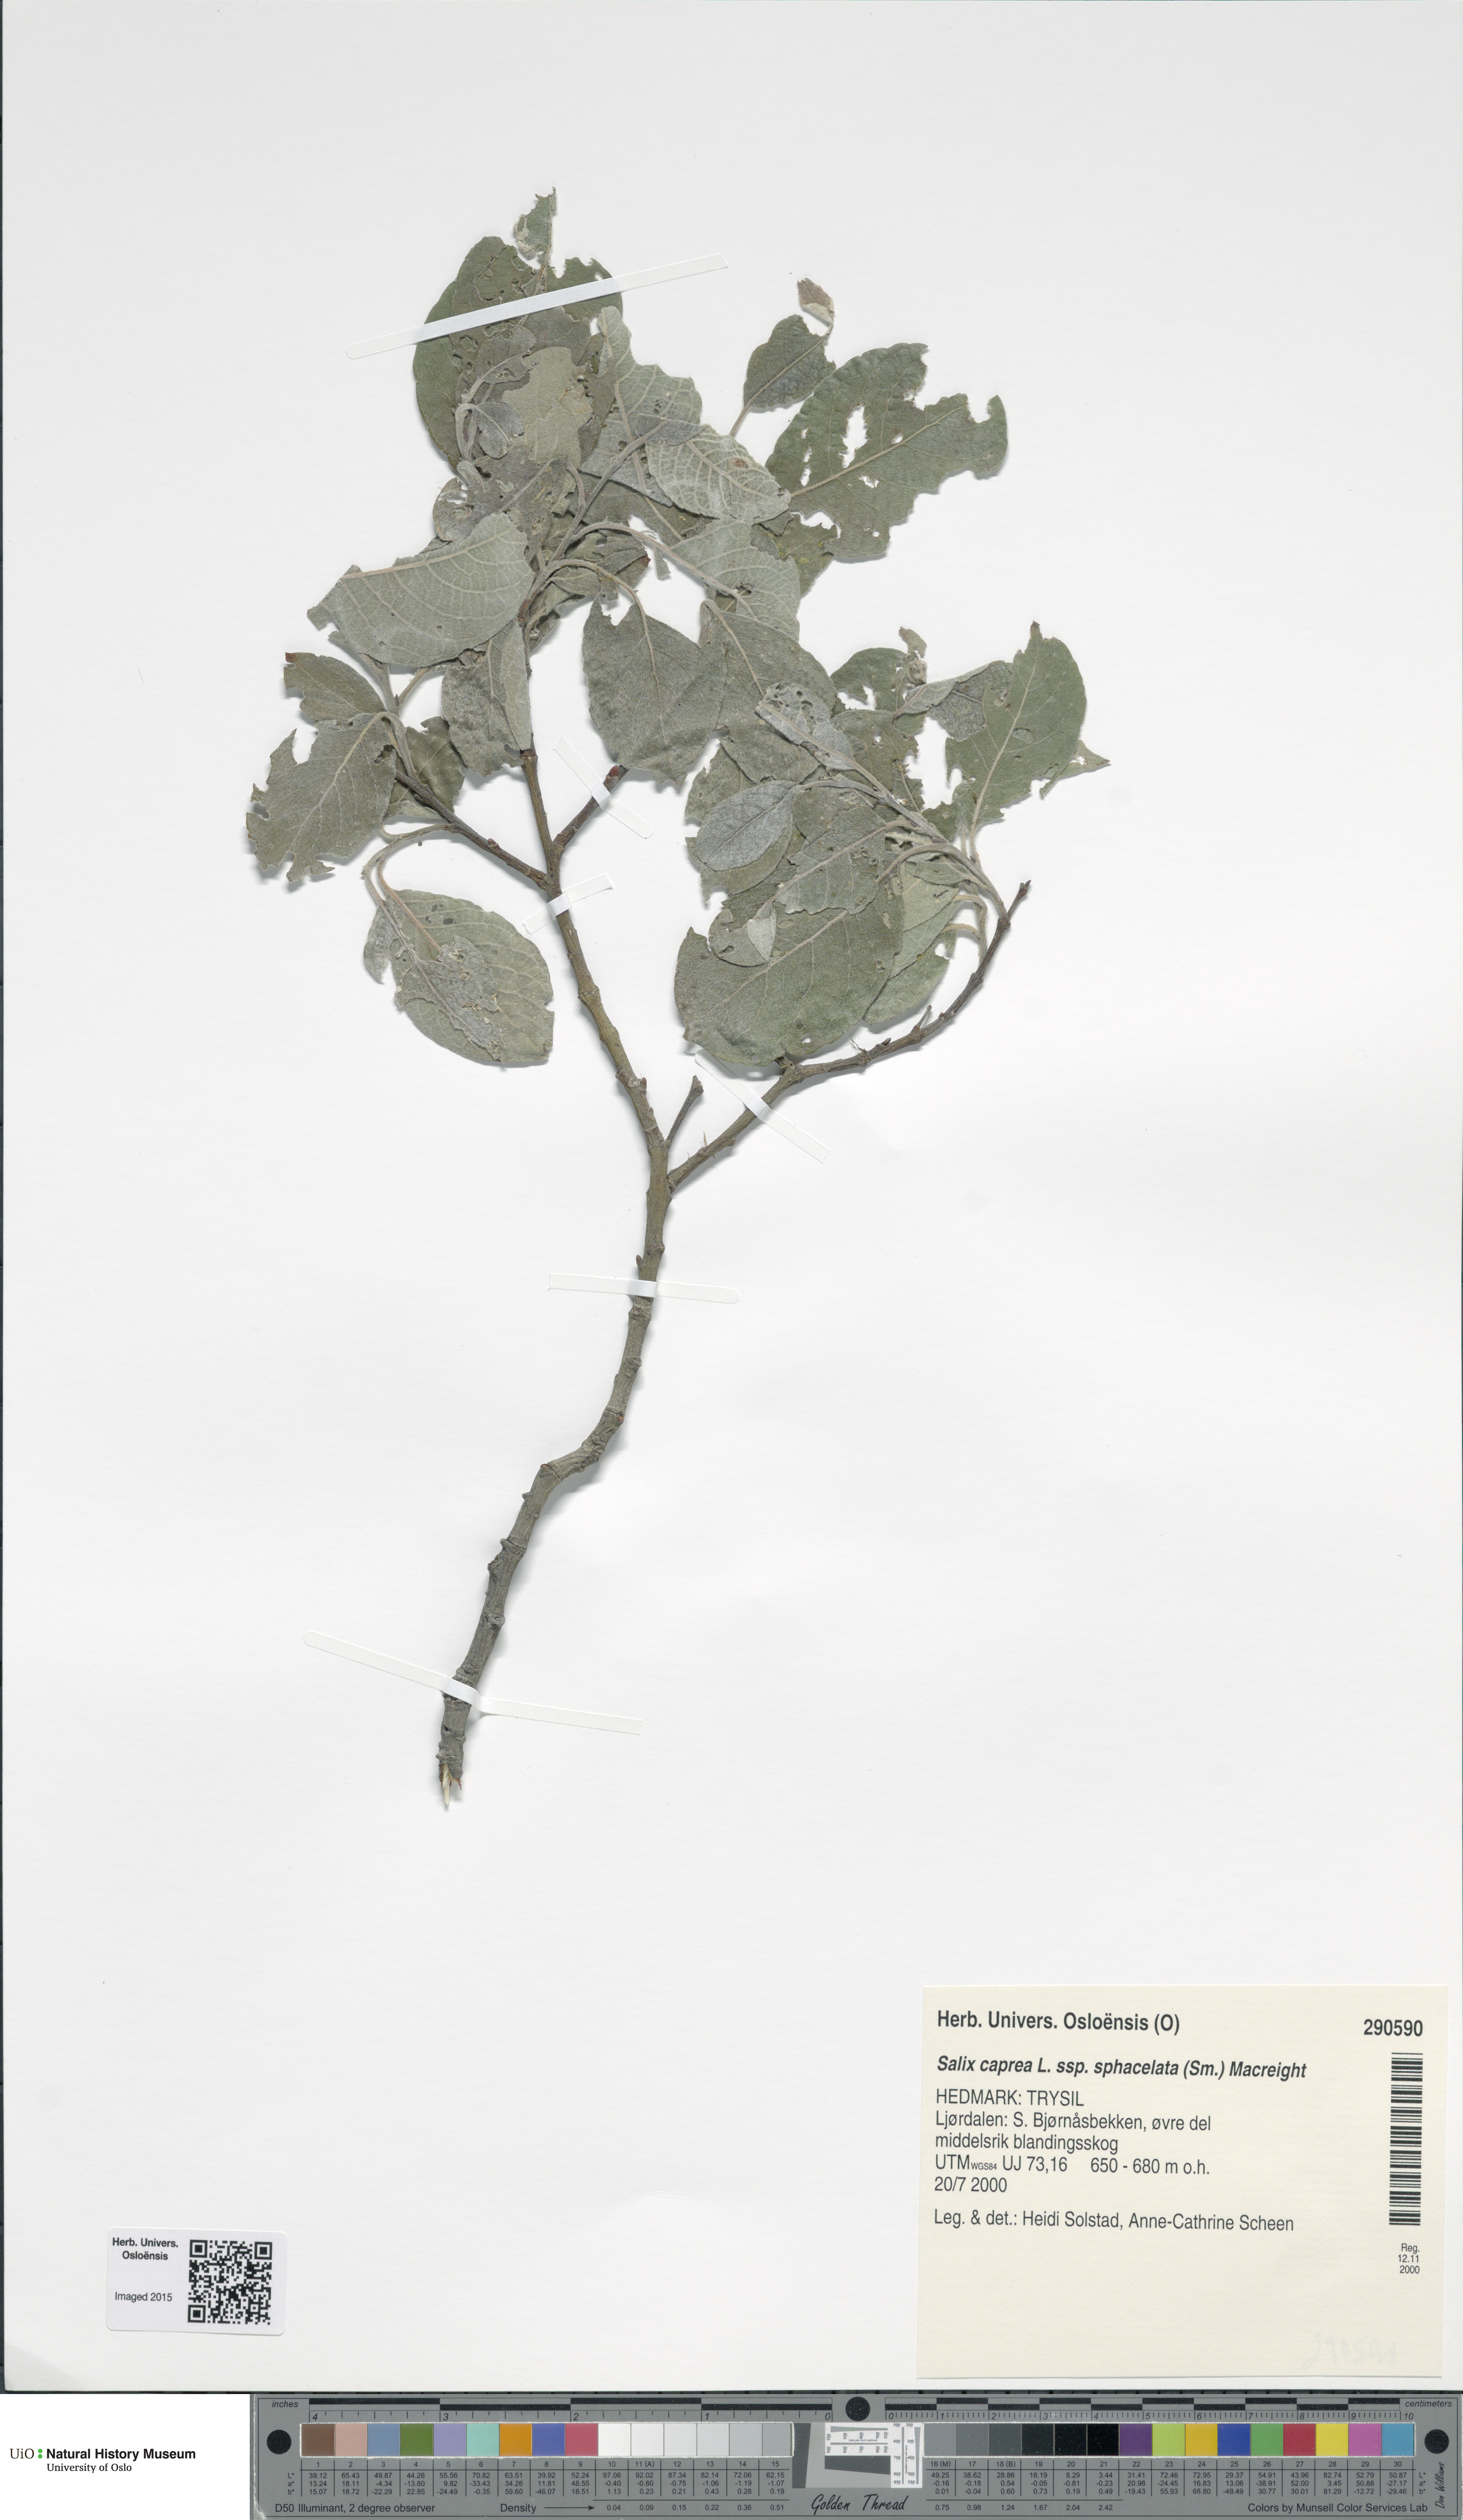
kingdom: Plantae
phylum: Tracheophyta
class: Magnoliopsida
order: Malpighiales
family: Salicaceae
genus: Salix
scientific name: Salix caprea
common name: Goat willow
